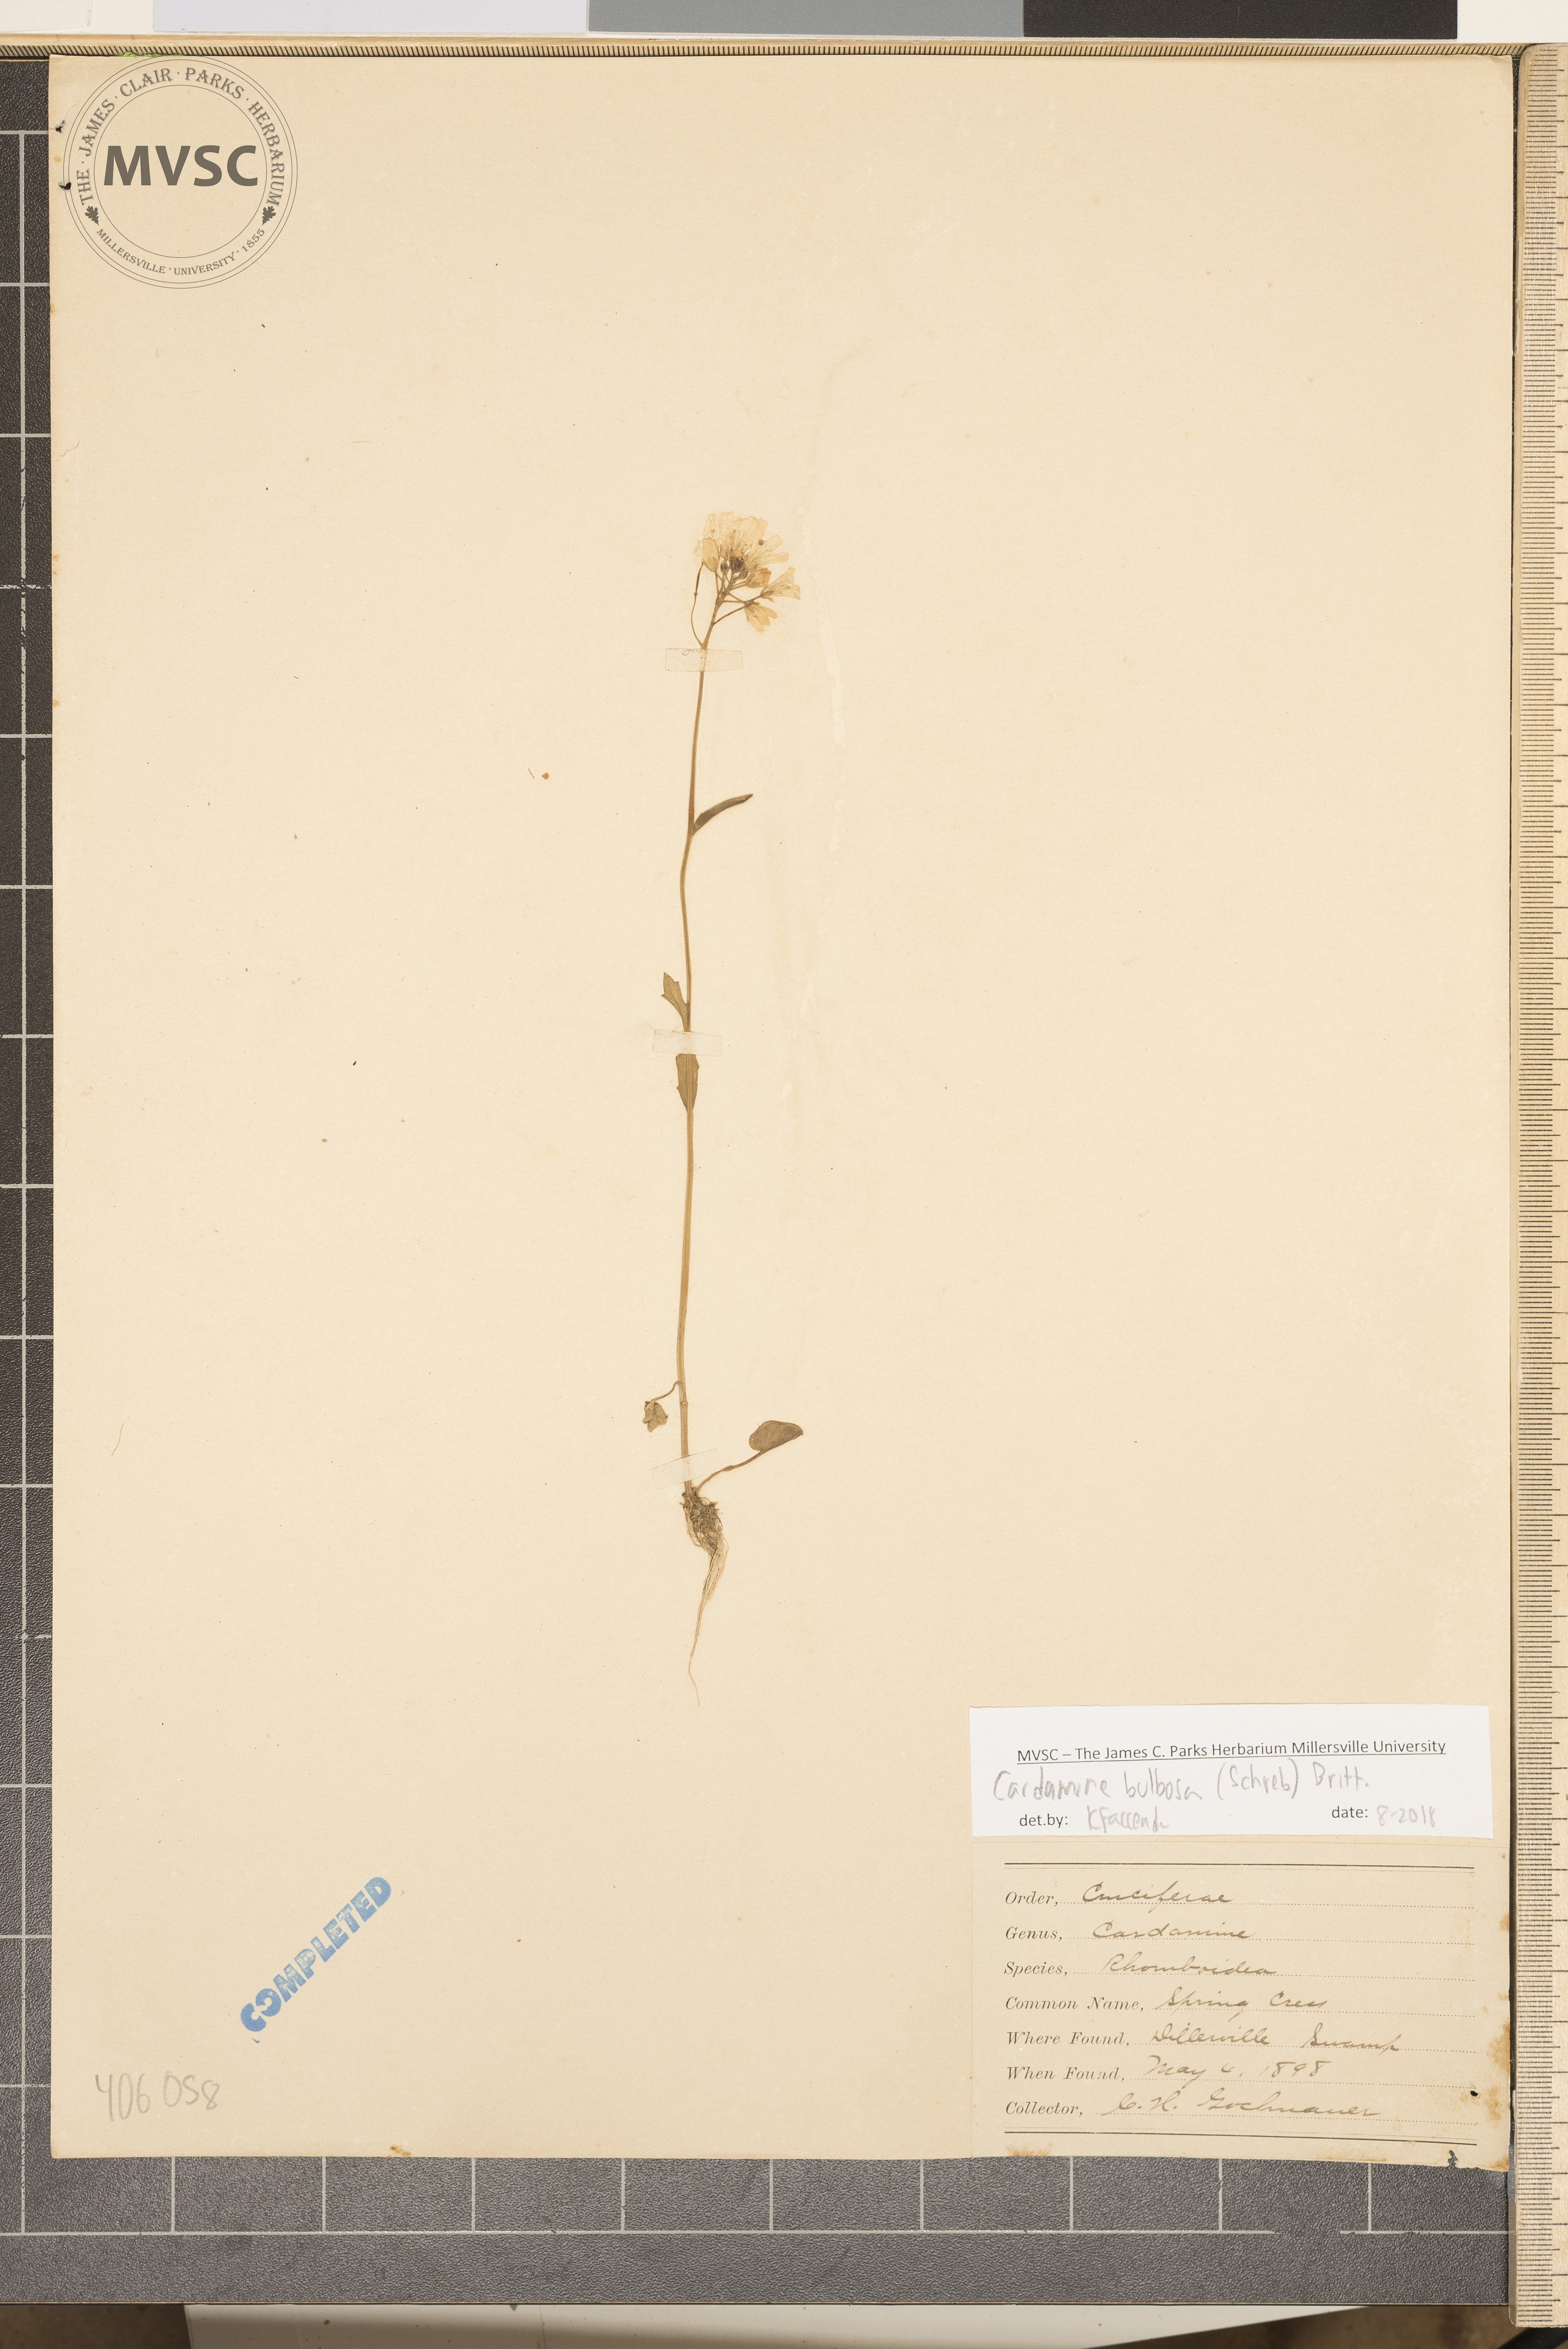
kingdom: Plantae
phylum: Tracheophyta
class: Magnoliopsida
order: Brassicales
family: Brassicaceae
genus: Cardamine
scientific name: Cardamine bulbosa
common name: Spring cress
